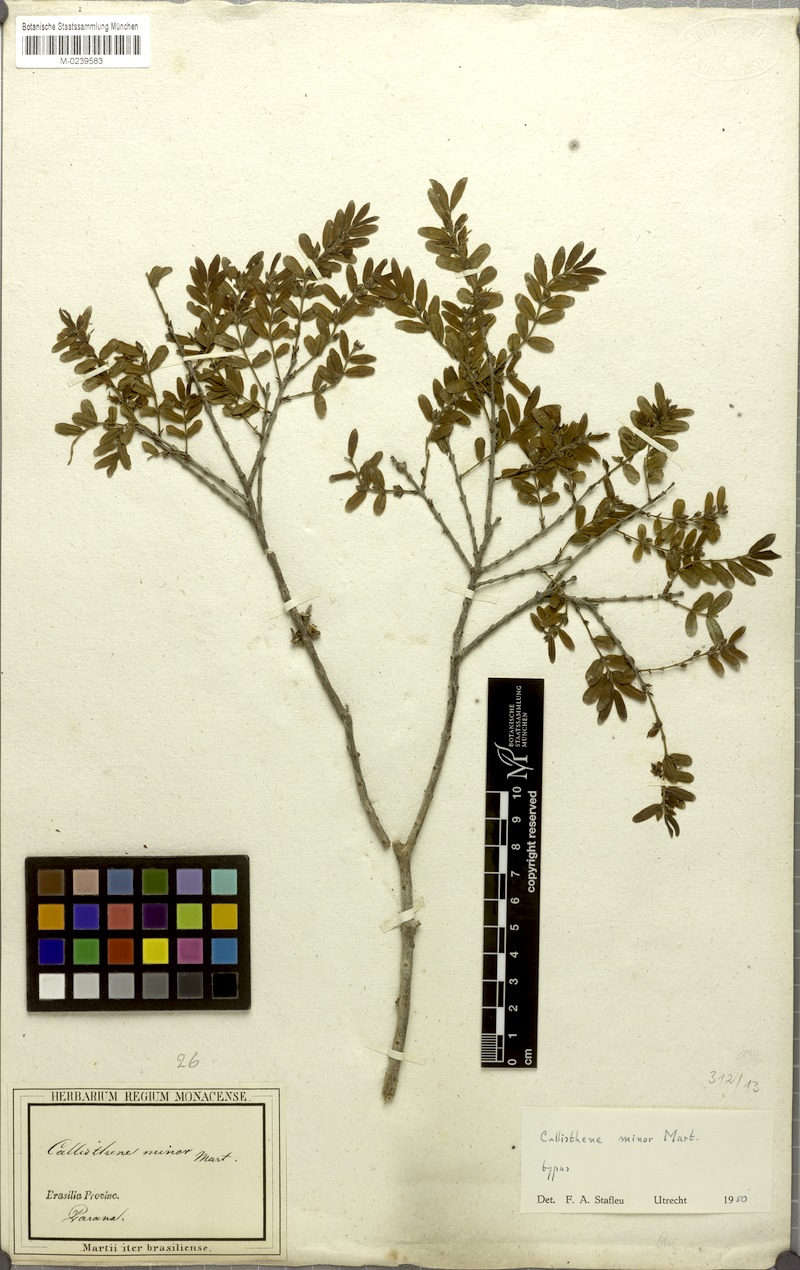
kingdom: Plantae
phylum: Tracheophyta
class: Magnoliopsida
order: Myrtales
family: Vochysiaceae
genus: Callisthene
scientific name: Callisthene minor
